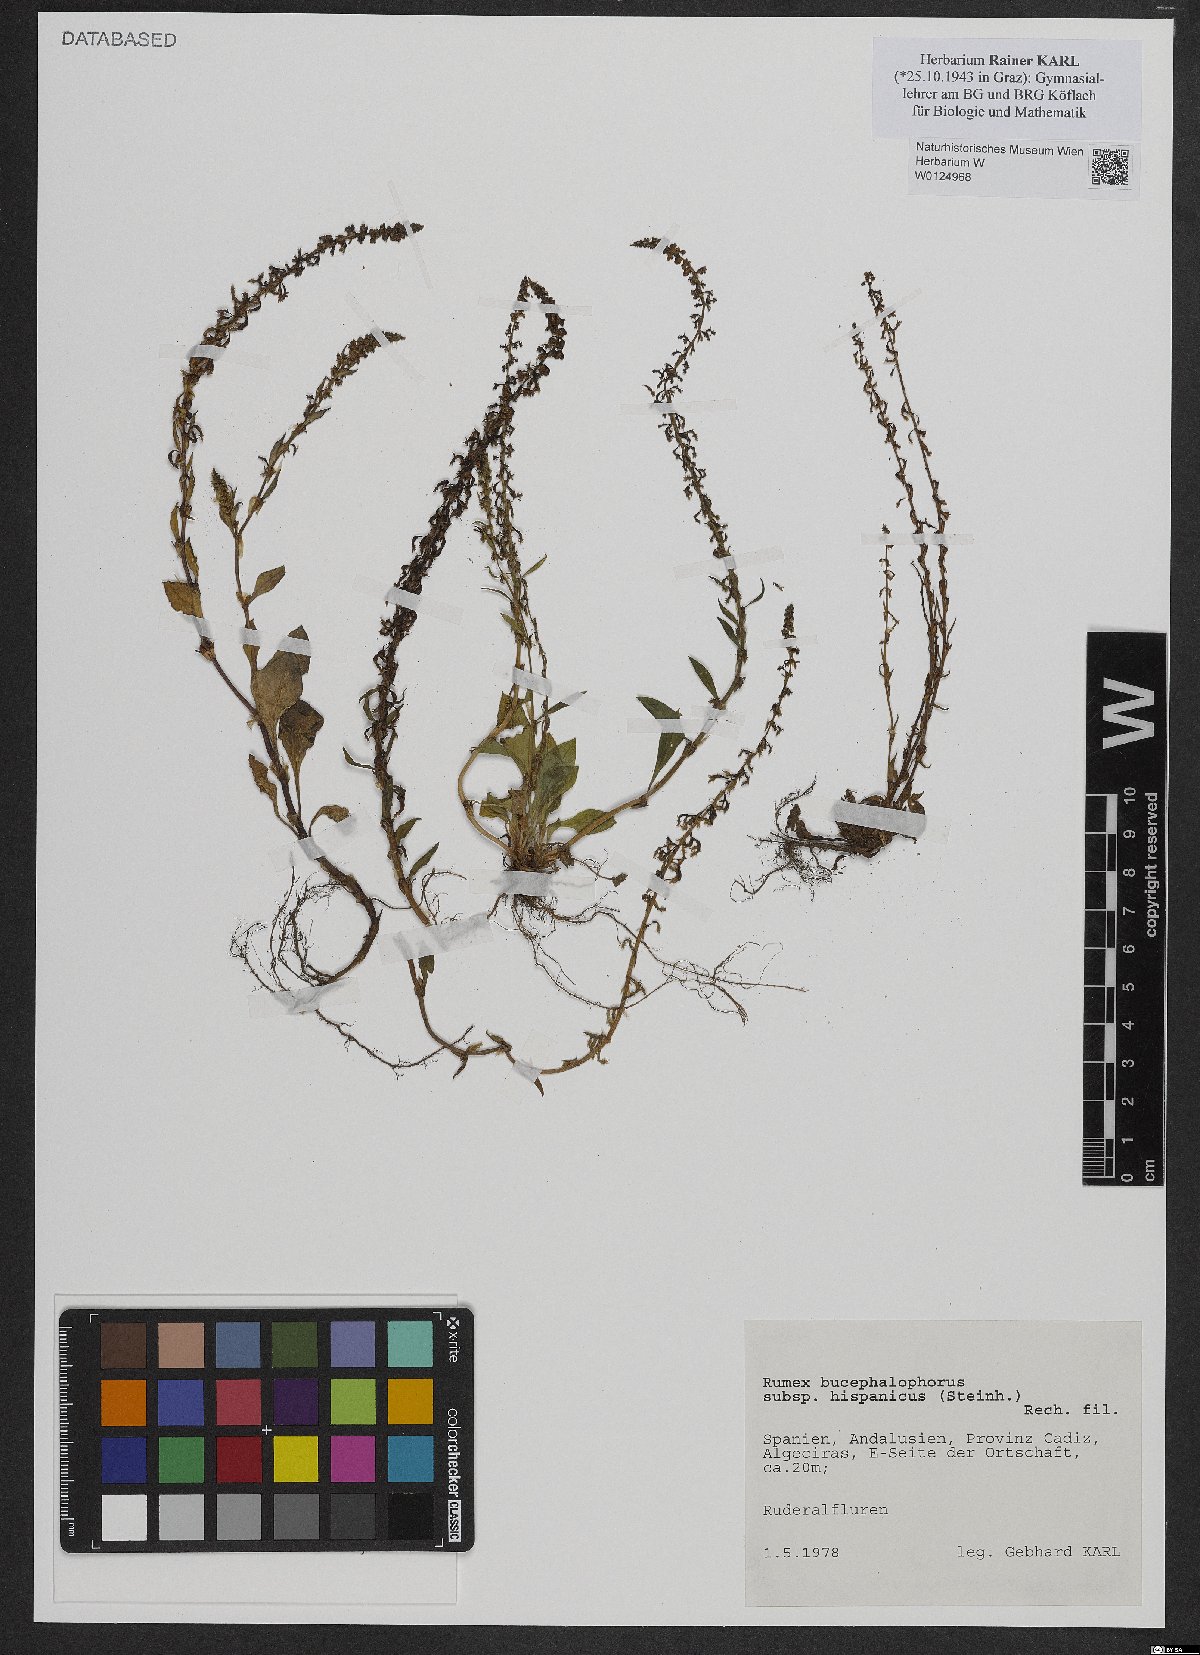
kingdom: Plantae
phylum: Tracheophyta
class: Magnoliopsida
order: Caryophyllales
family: Polygonaceae
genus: Rumex
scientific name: Rumex bucephalophorus
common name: Red dock
